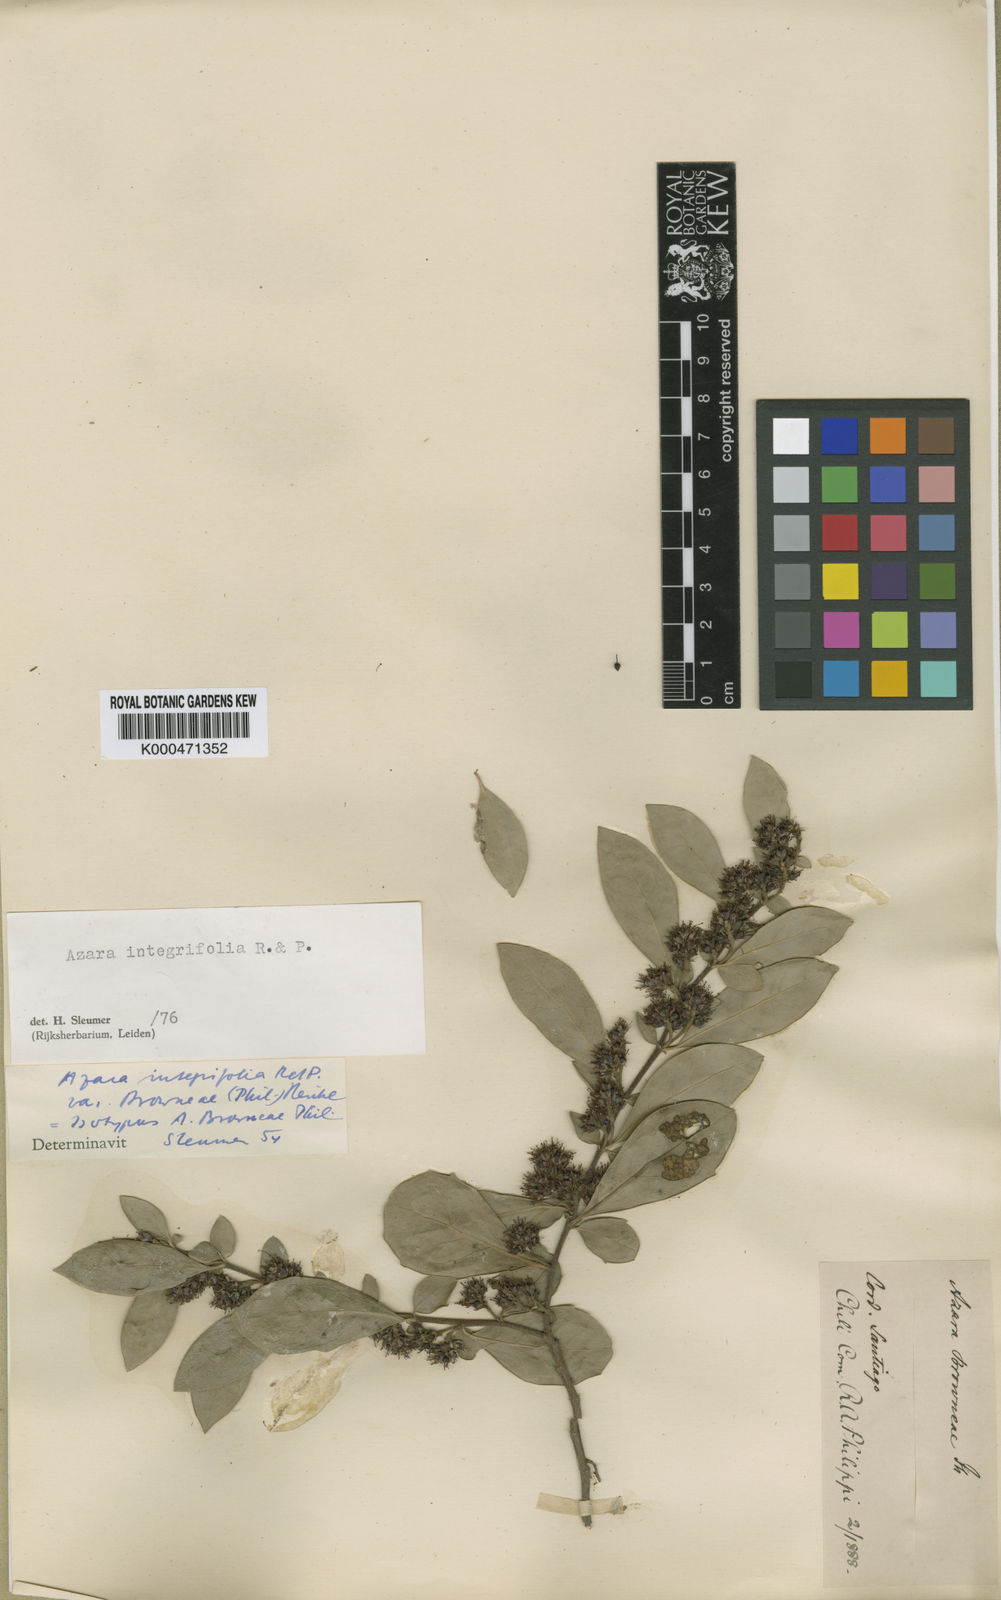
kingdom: Plantae
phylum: Tracheophyta
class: Magnoliopsida
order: Malpighiales
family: Salicaceae
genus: Azara
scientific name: Azara integrifolia
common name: Goldspire
